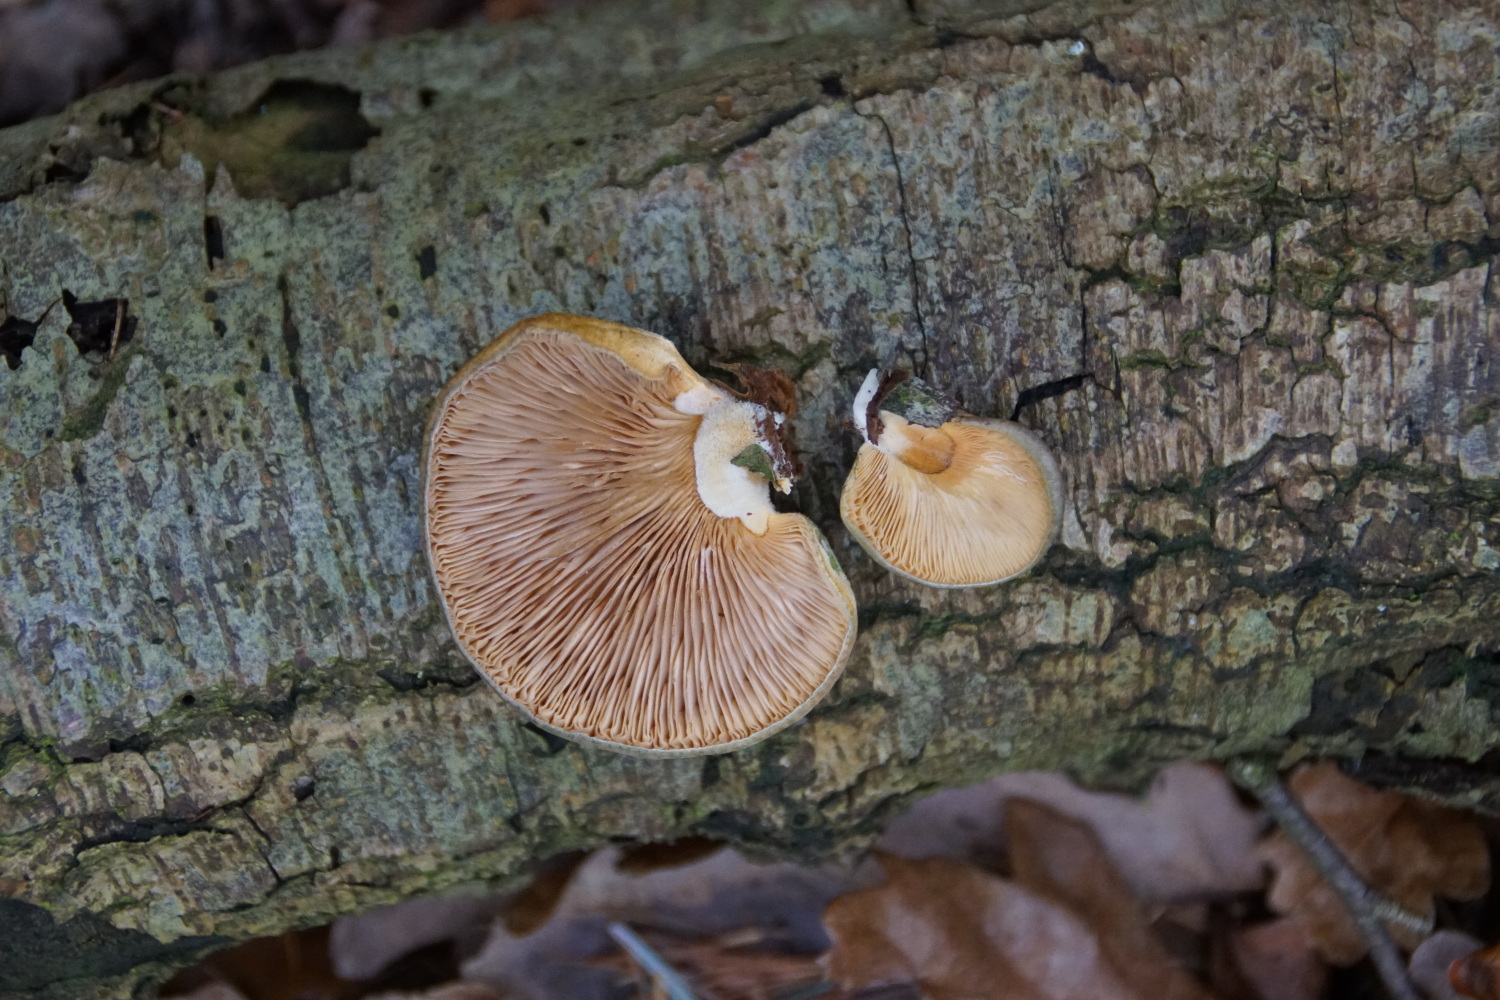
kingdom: Fungi
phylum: Basidiomycota
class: Agaricomycetes
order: Agaricales
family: Sarcomyxaceae
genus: Sarcomyxa
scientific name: Sarcomyxa serotina
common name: gummihat
